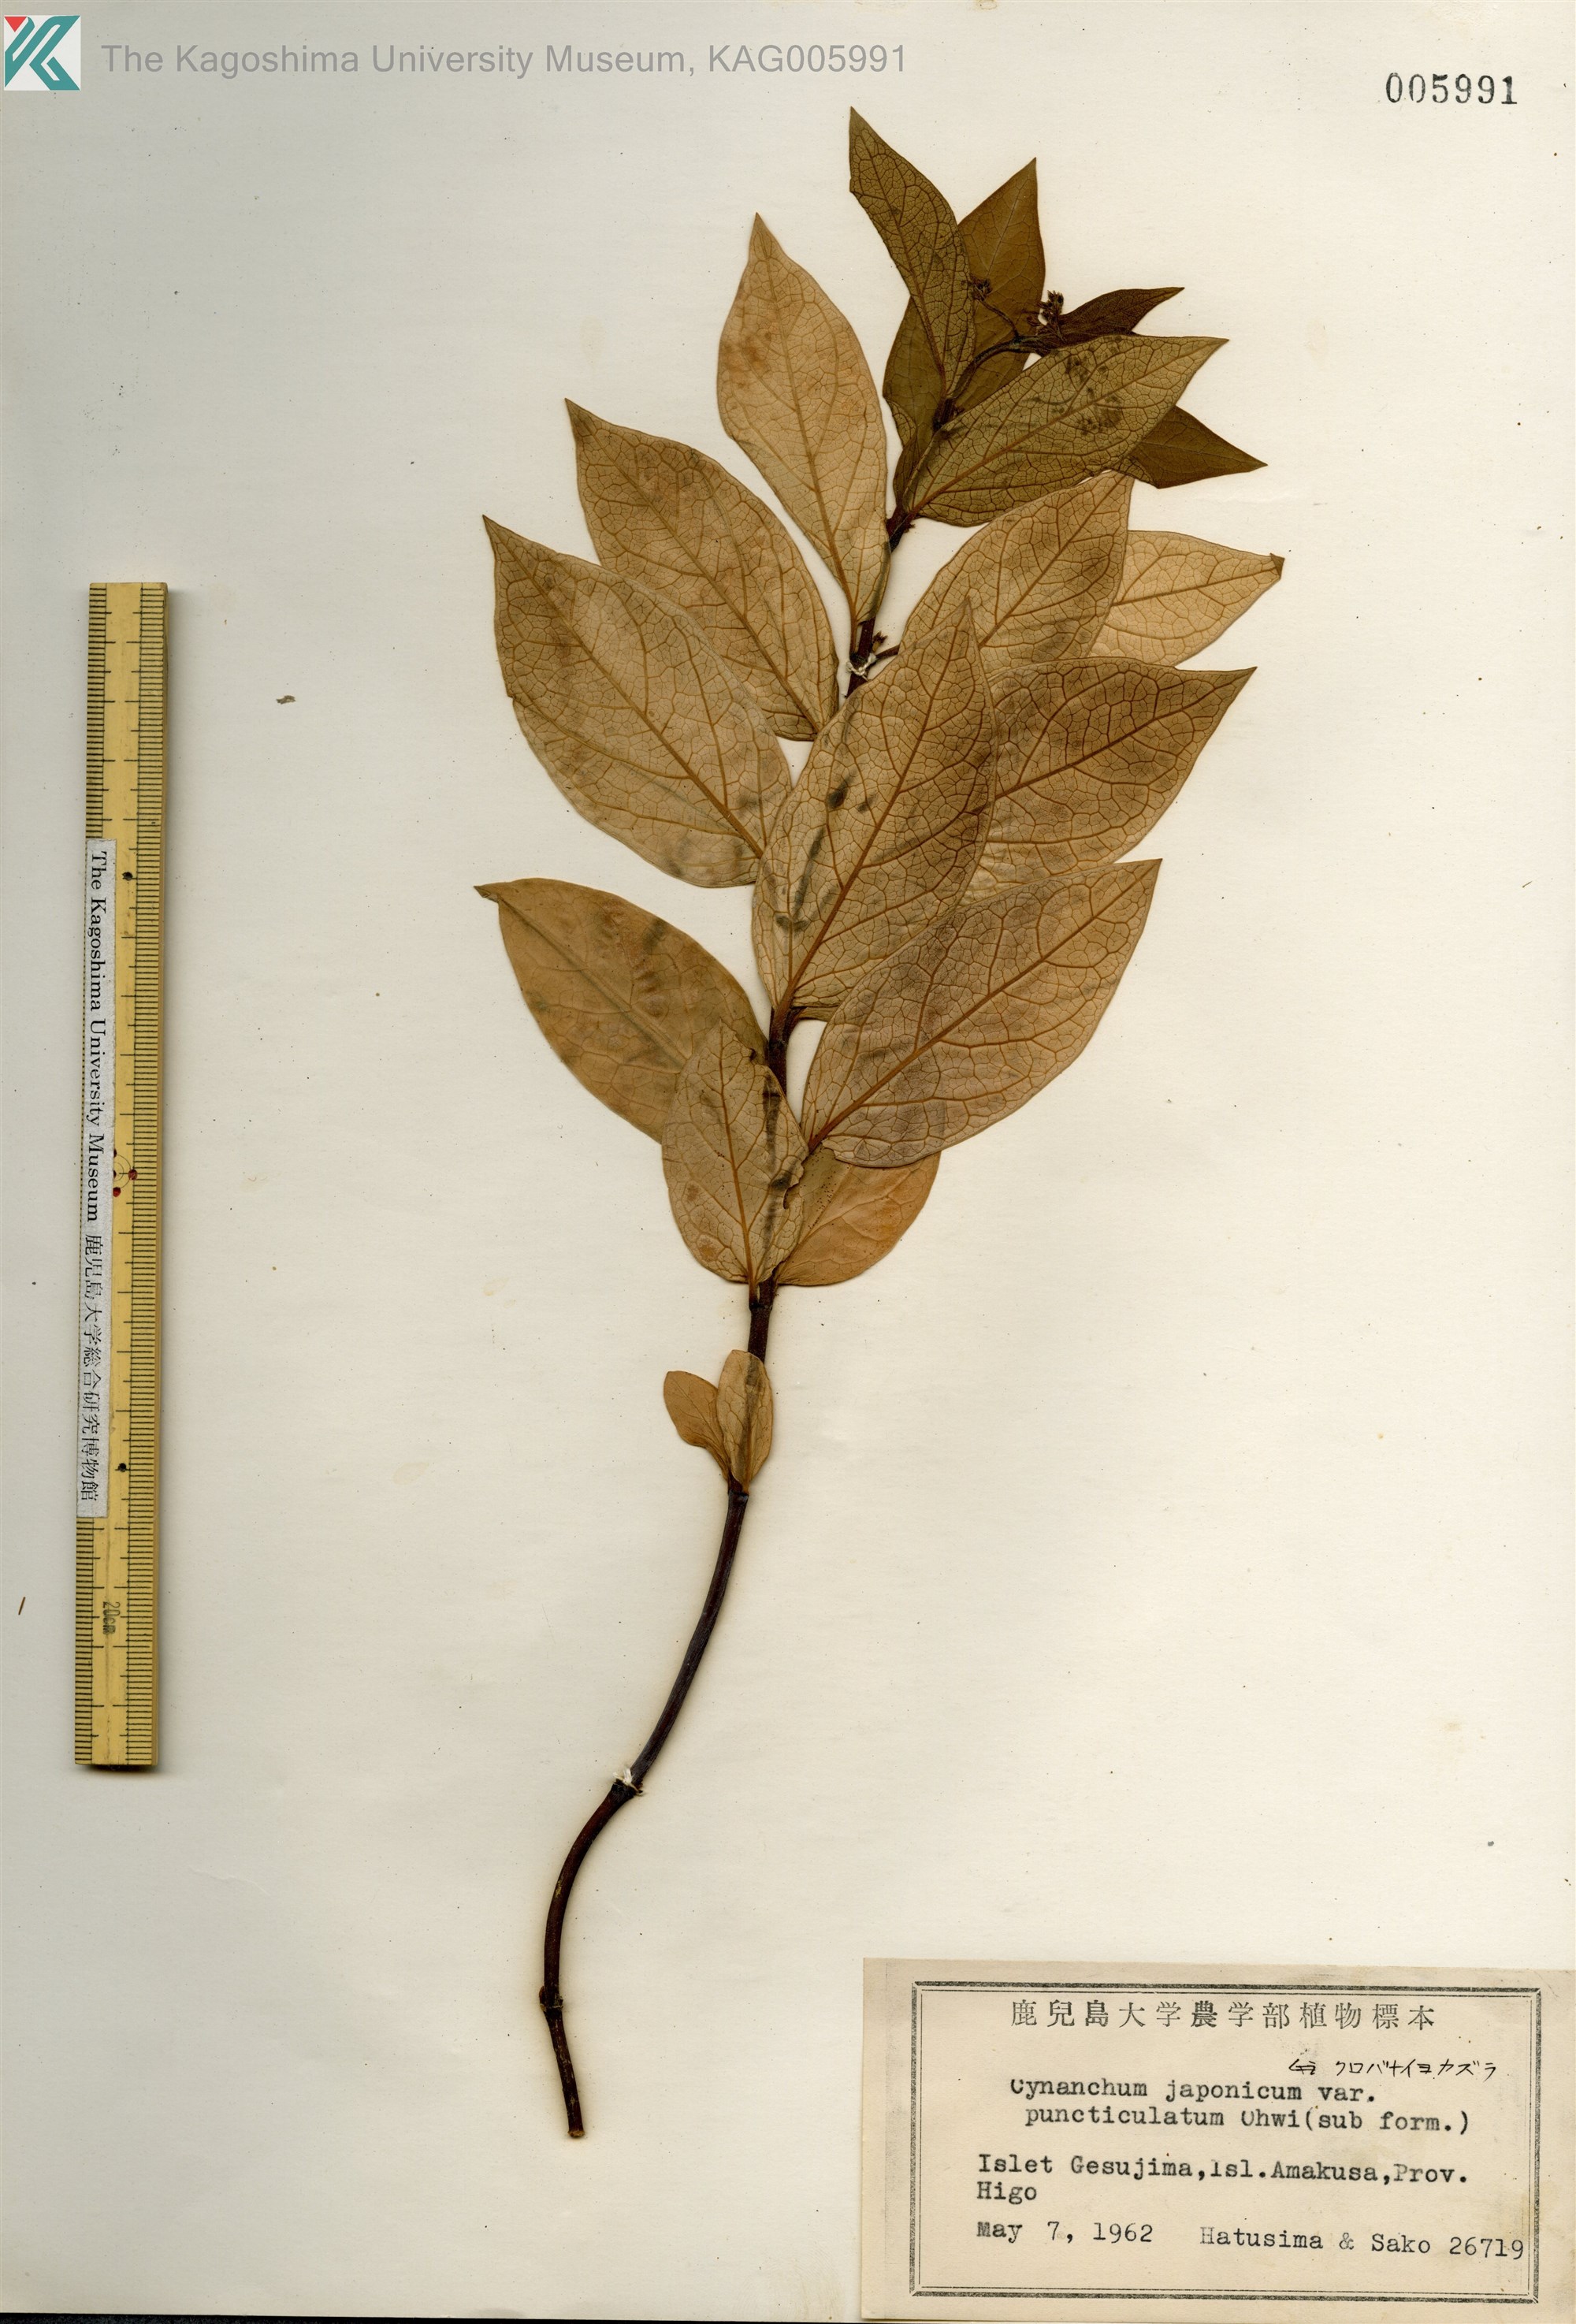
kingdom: Plantae
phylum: Tracheophyta
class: Magnoliopsida
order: Gentianales
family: Apocynaceae
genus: Vincetoxicum
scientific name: Vincetoxicum japonicum
